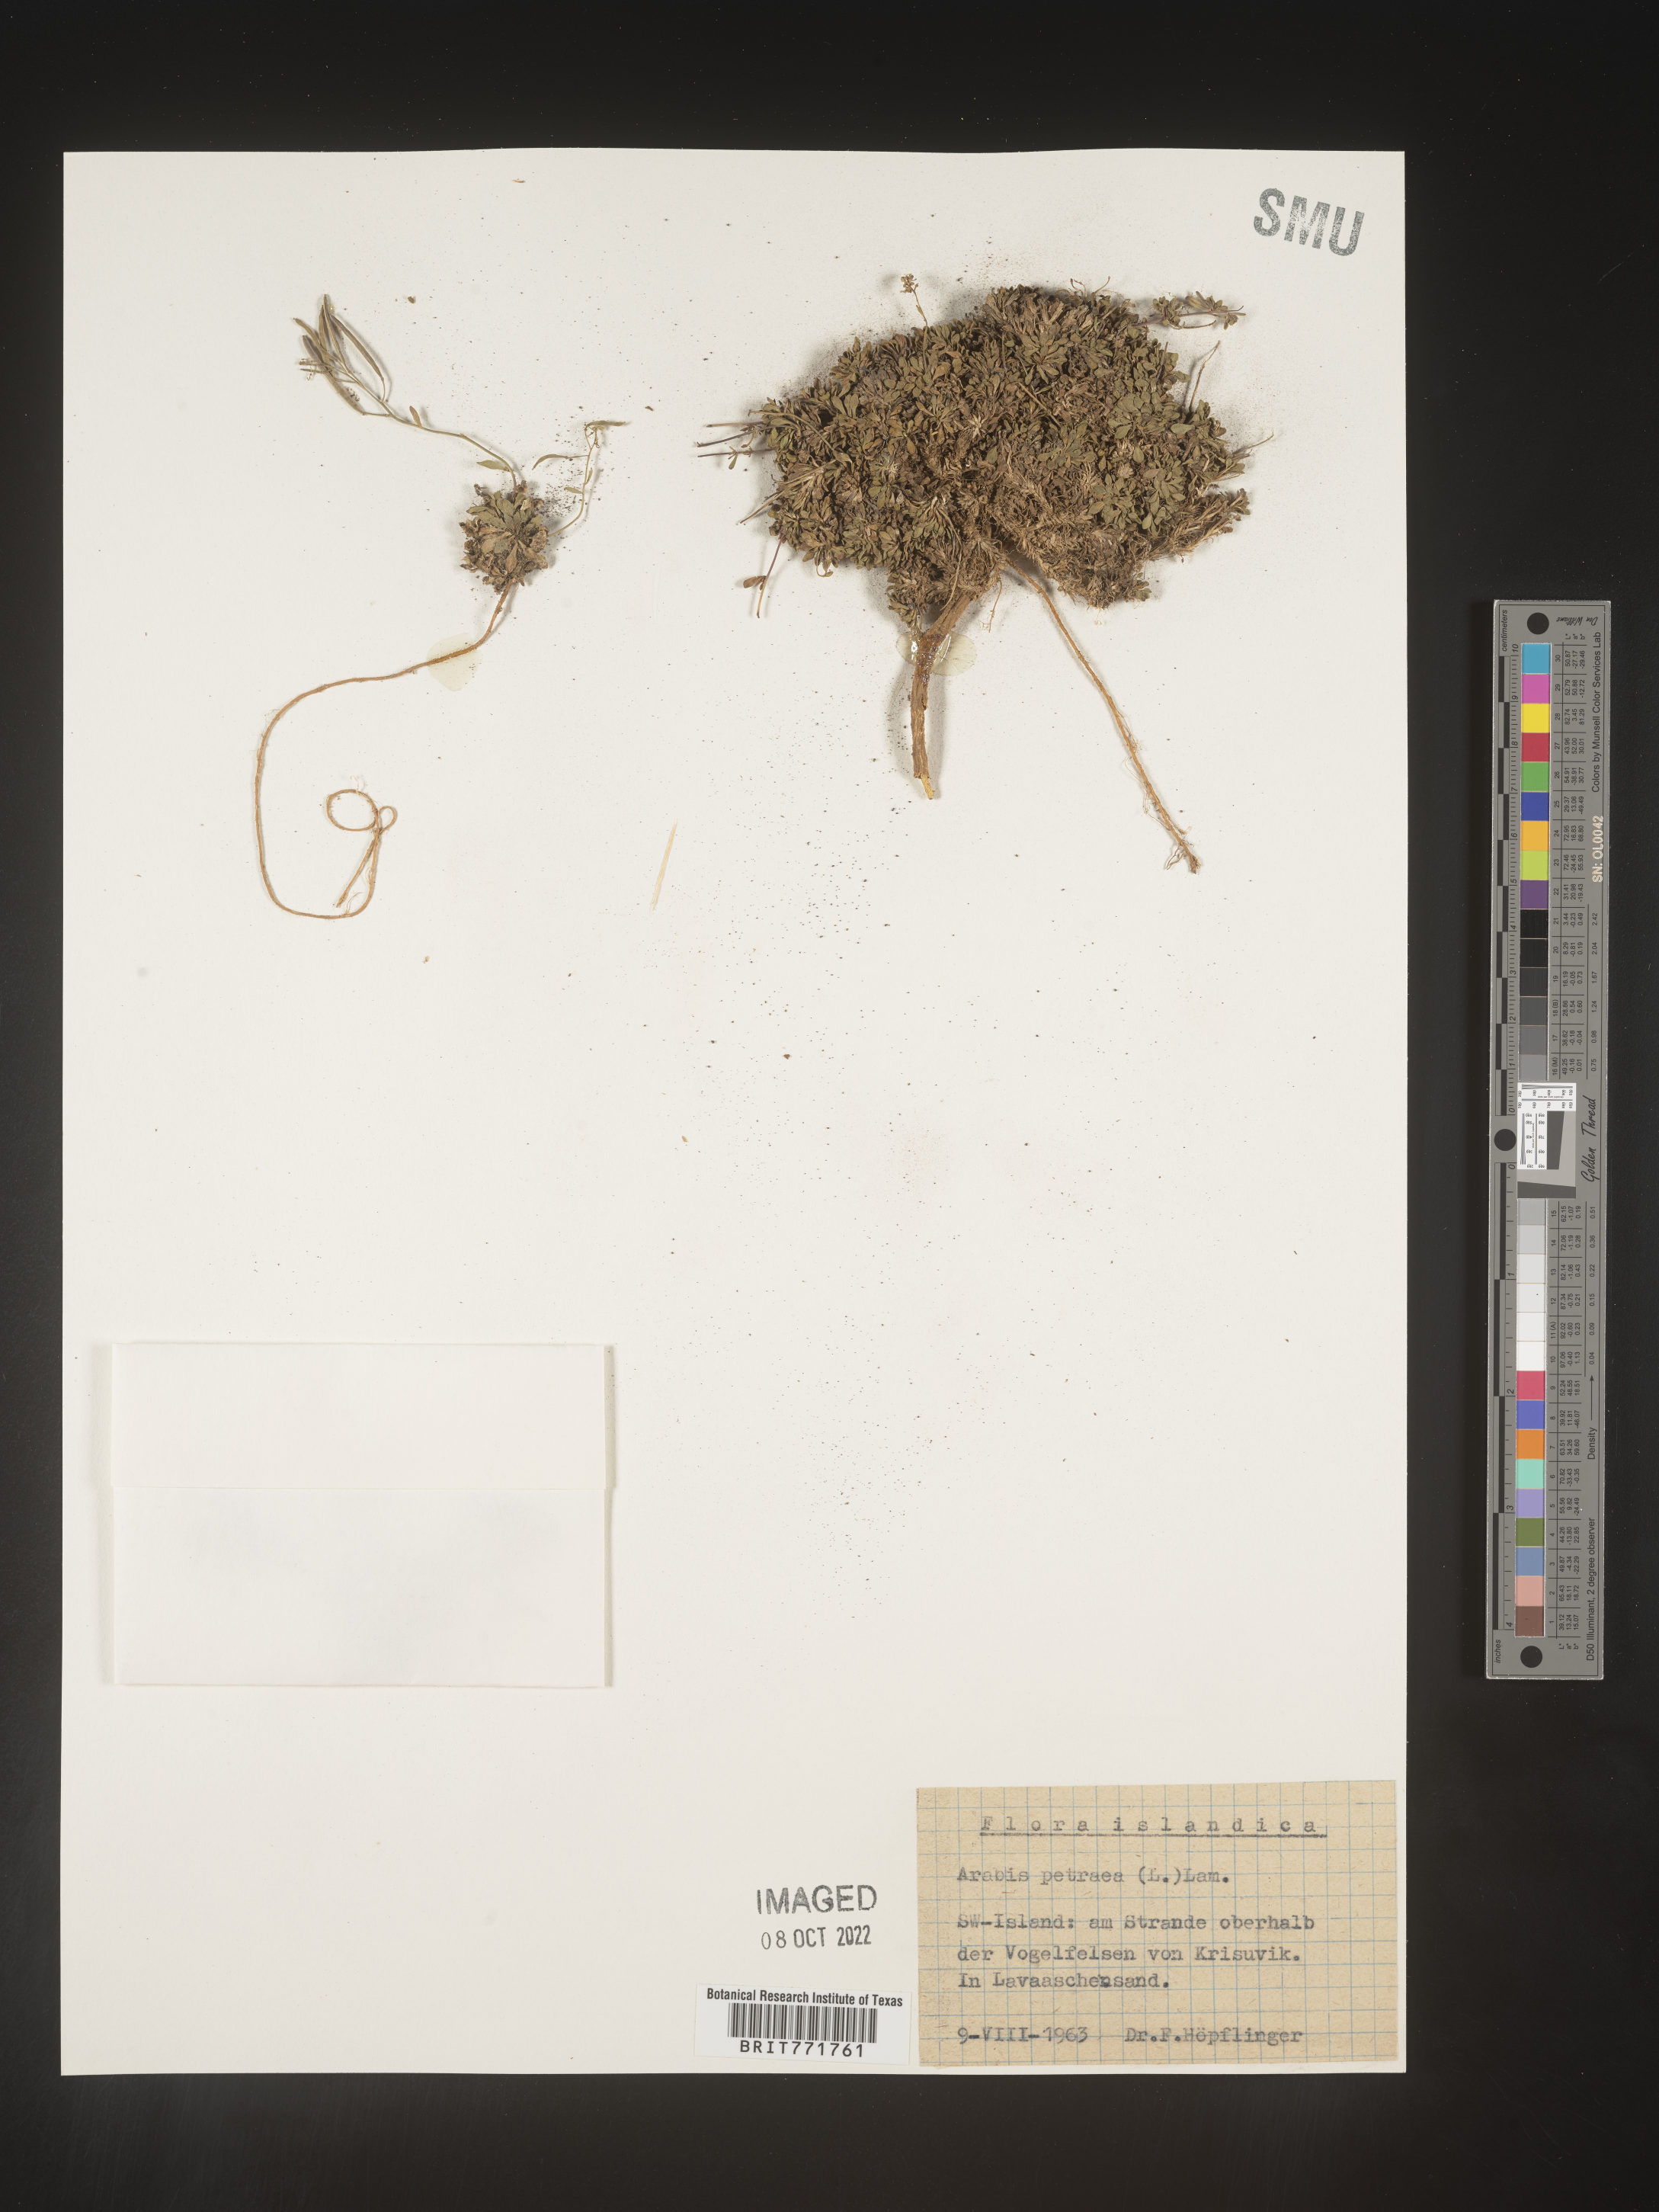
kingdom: Plantae
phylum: Tracheophyta
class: Magnoliopsida
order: Brassicales
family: Brassicaceae
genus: Arabis
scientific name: Arabis
